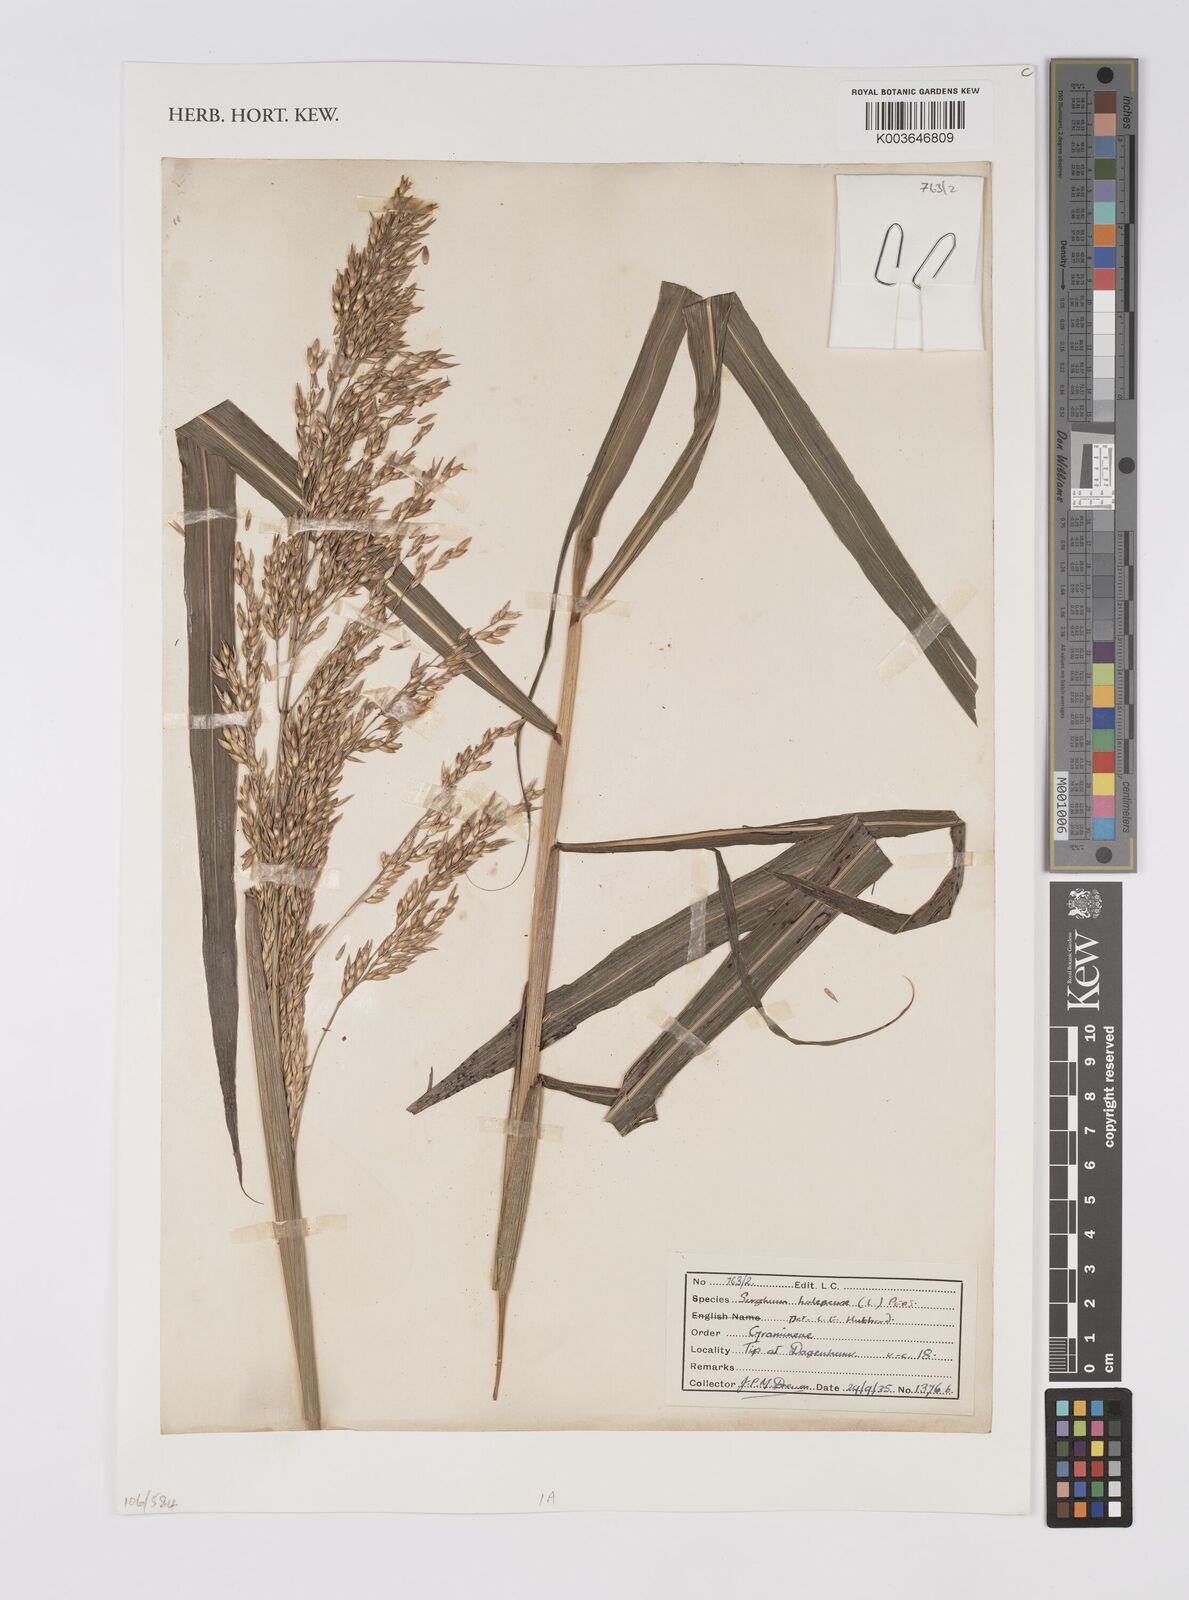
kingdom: Plantae
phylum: Tracheophyta
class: Liliopsida
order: Poales
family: Poaceae
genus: Sorghum
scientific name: Sorghum halepense
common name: Johnson-grass
